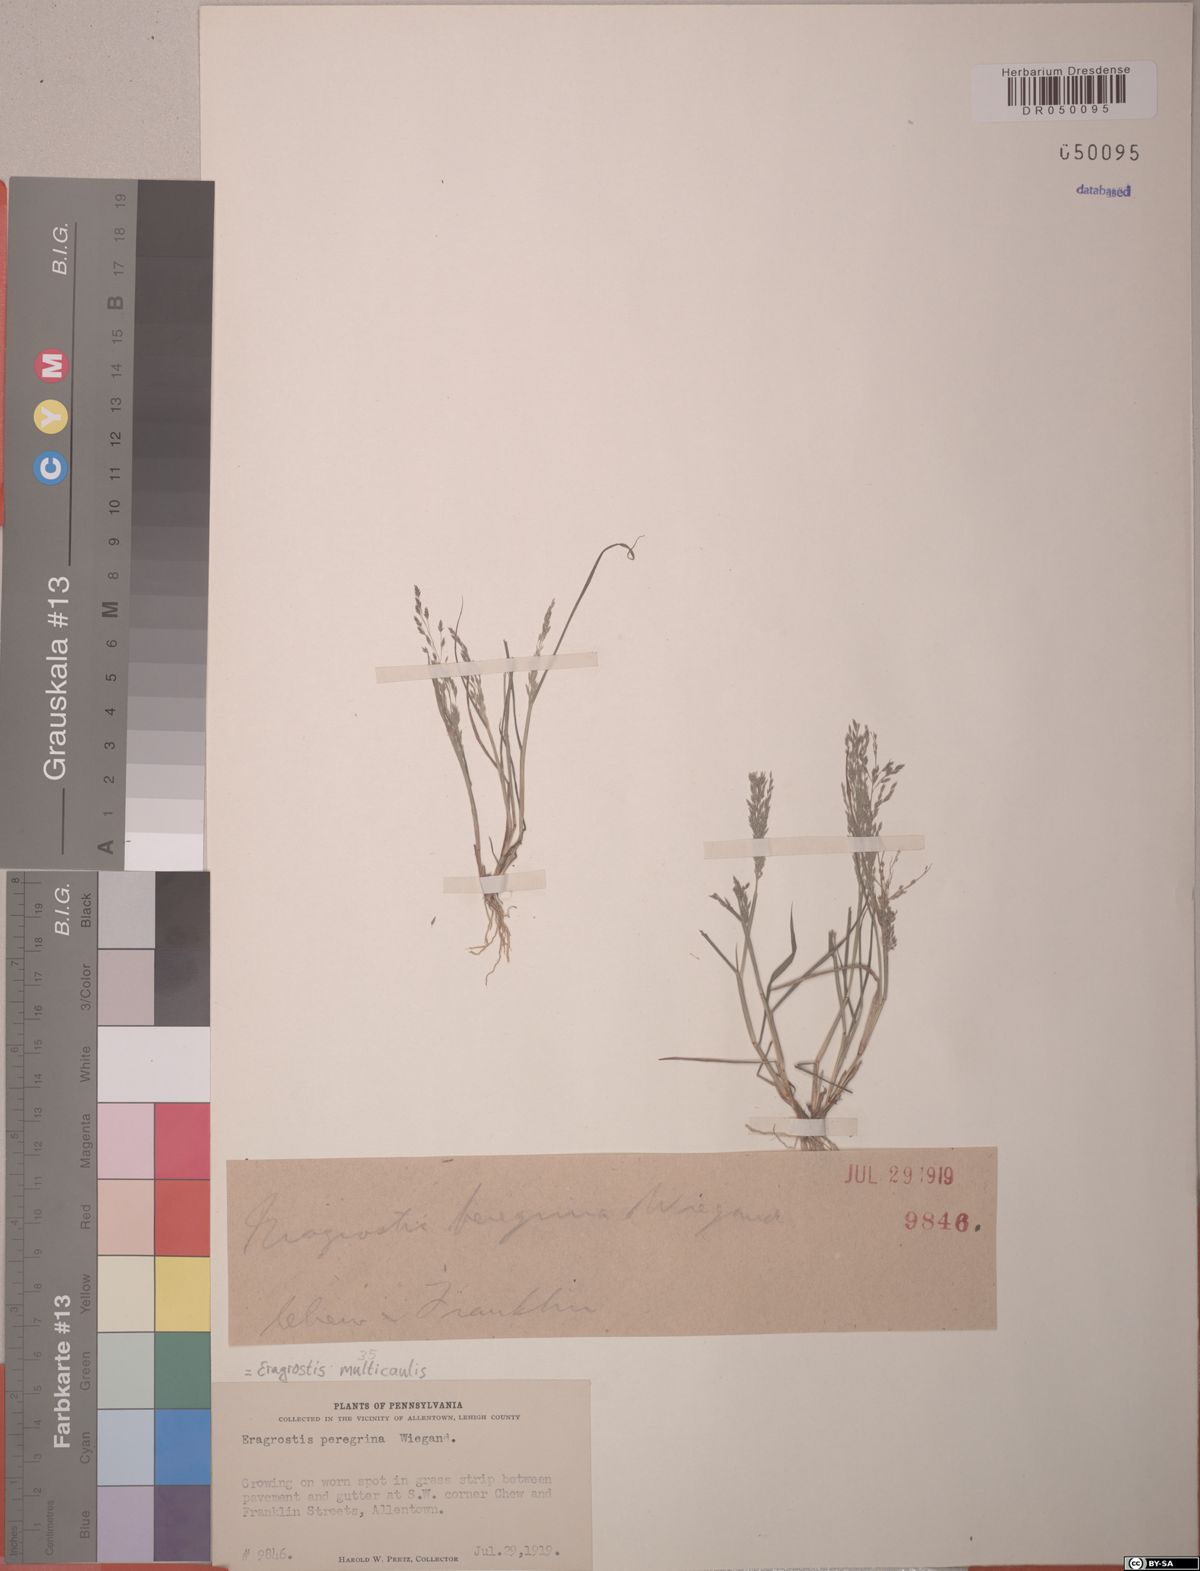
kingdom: Plantae
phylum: Tracheophyta
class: Liliopsida
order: Poales
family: Poaceae
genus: Eragrostis
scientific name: Eragrostis multicaulis
